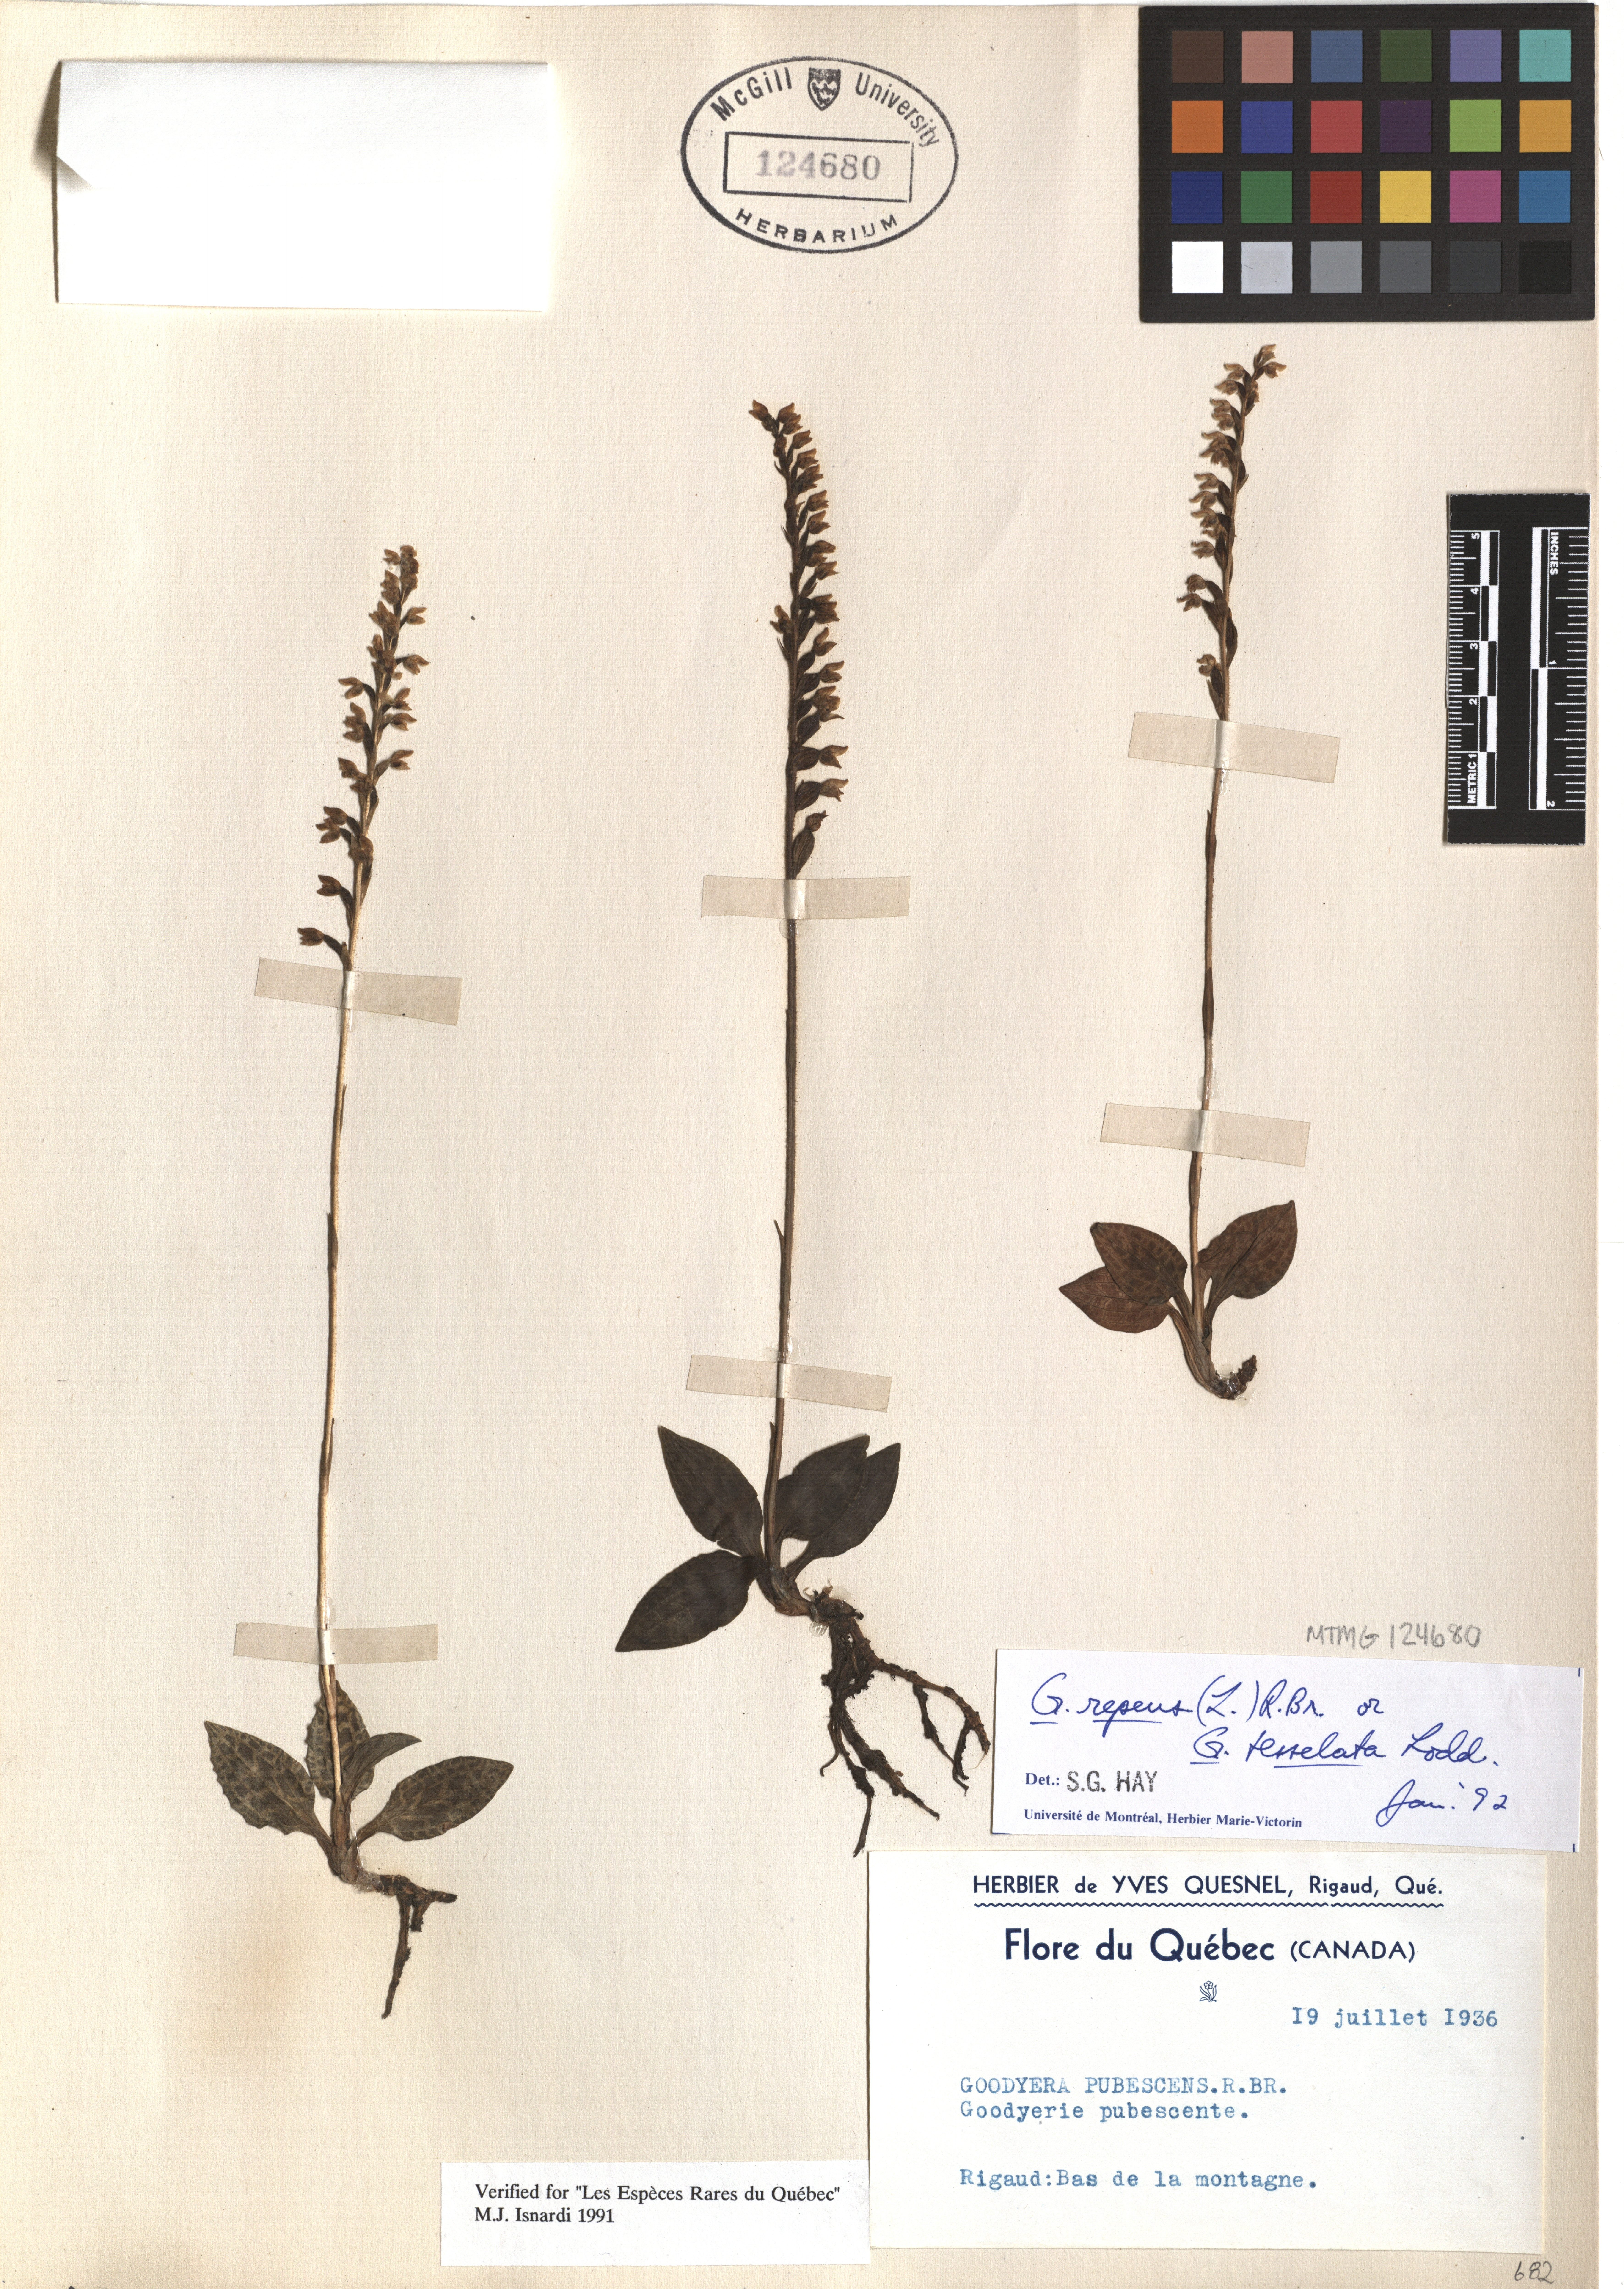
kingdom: Plantae
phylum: Tracheophyta
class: Liliopsida
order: Asparagales
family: Orchidaceae
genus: Goodyera
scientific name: Goodyera repens
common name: Creeping lady's-tresses
